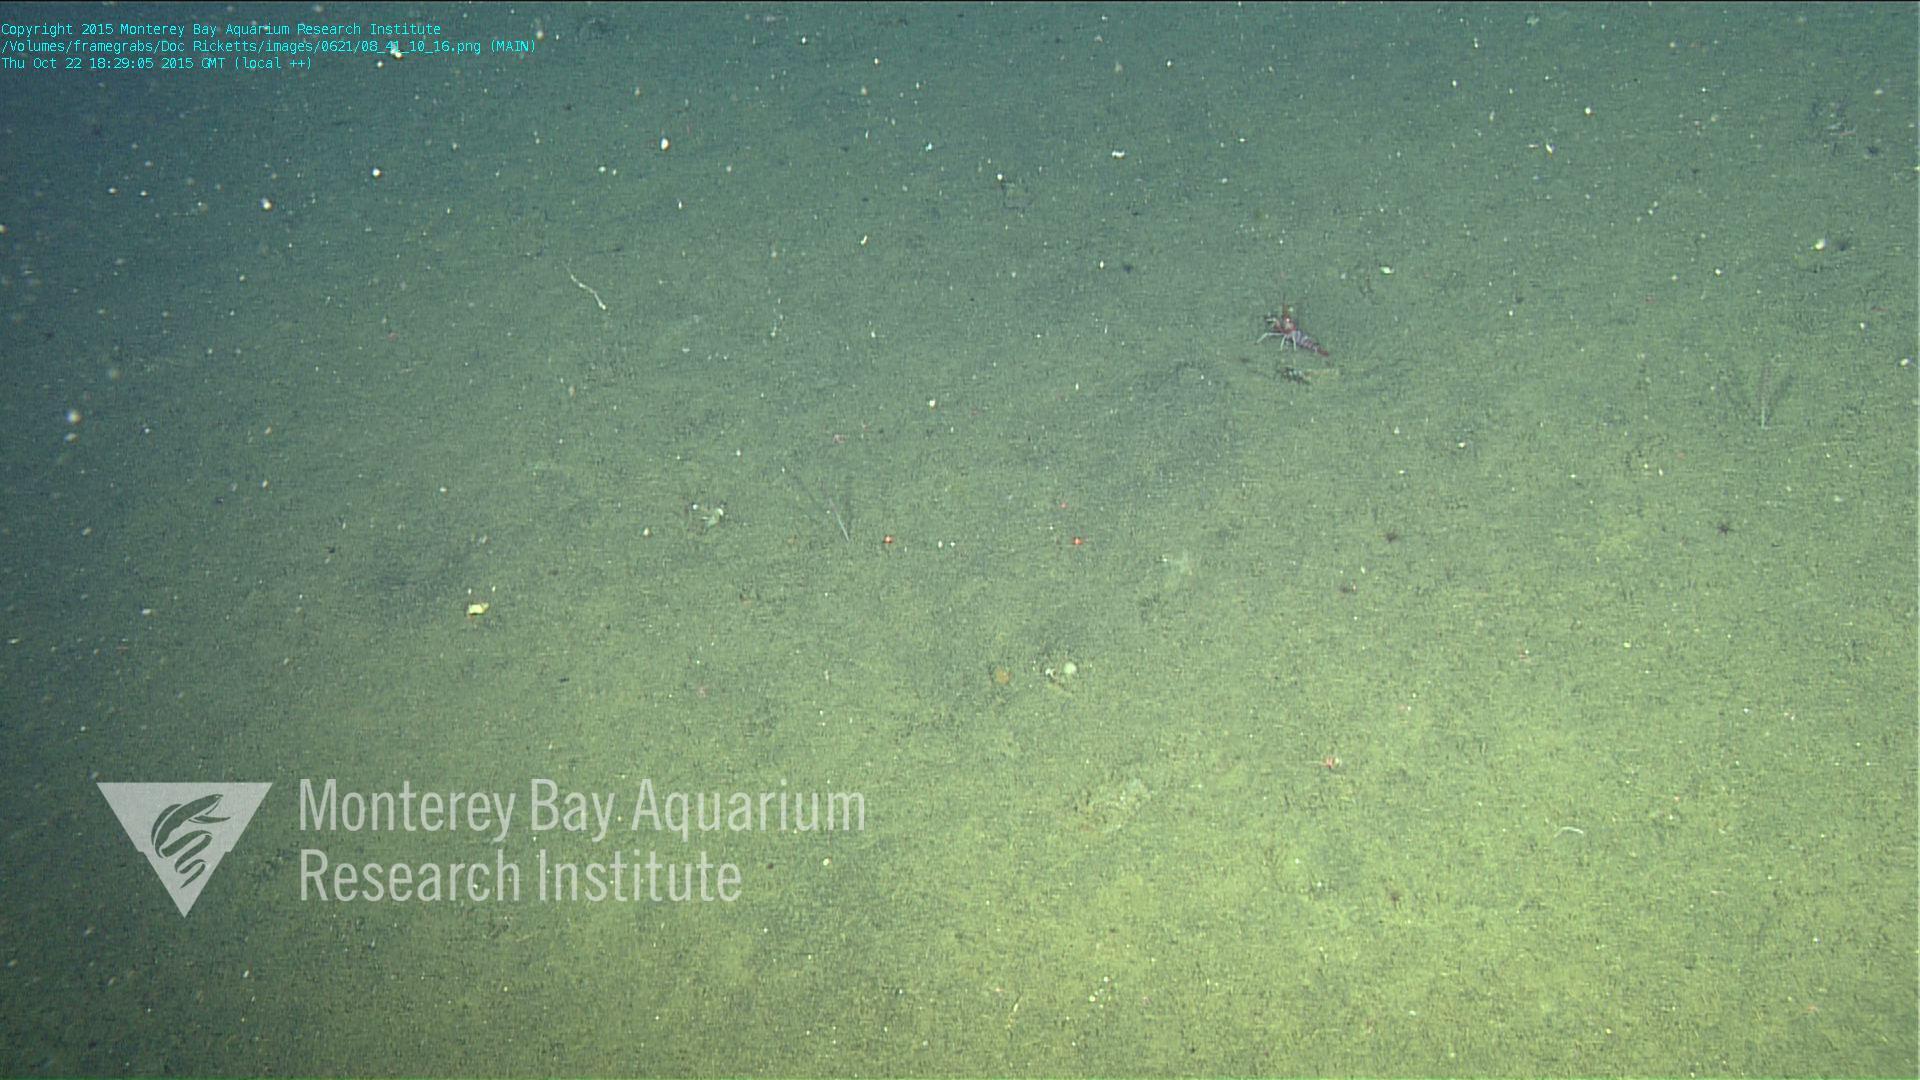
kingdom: Animalia
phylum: Cnidaria
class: Anthozoa
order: Scleralcyonacea
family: Funiculinidae
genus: Funiculina
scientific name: Funiculina
